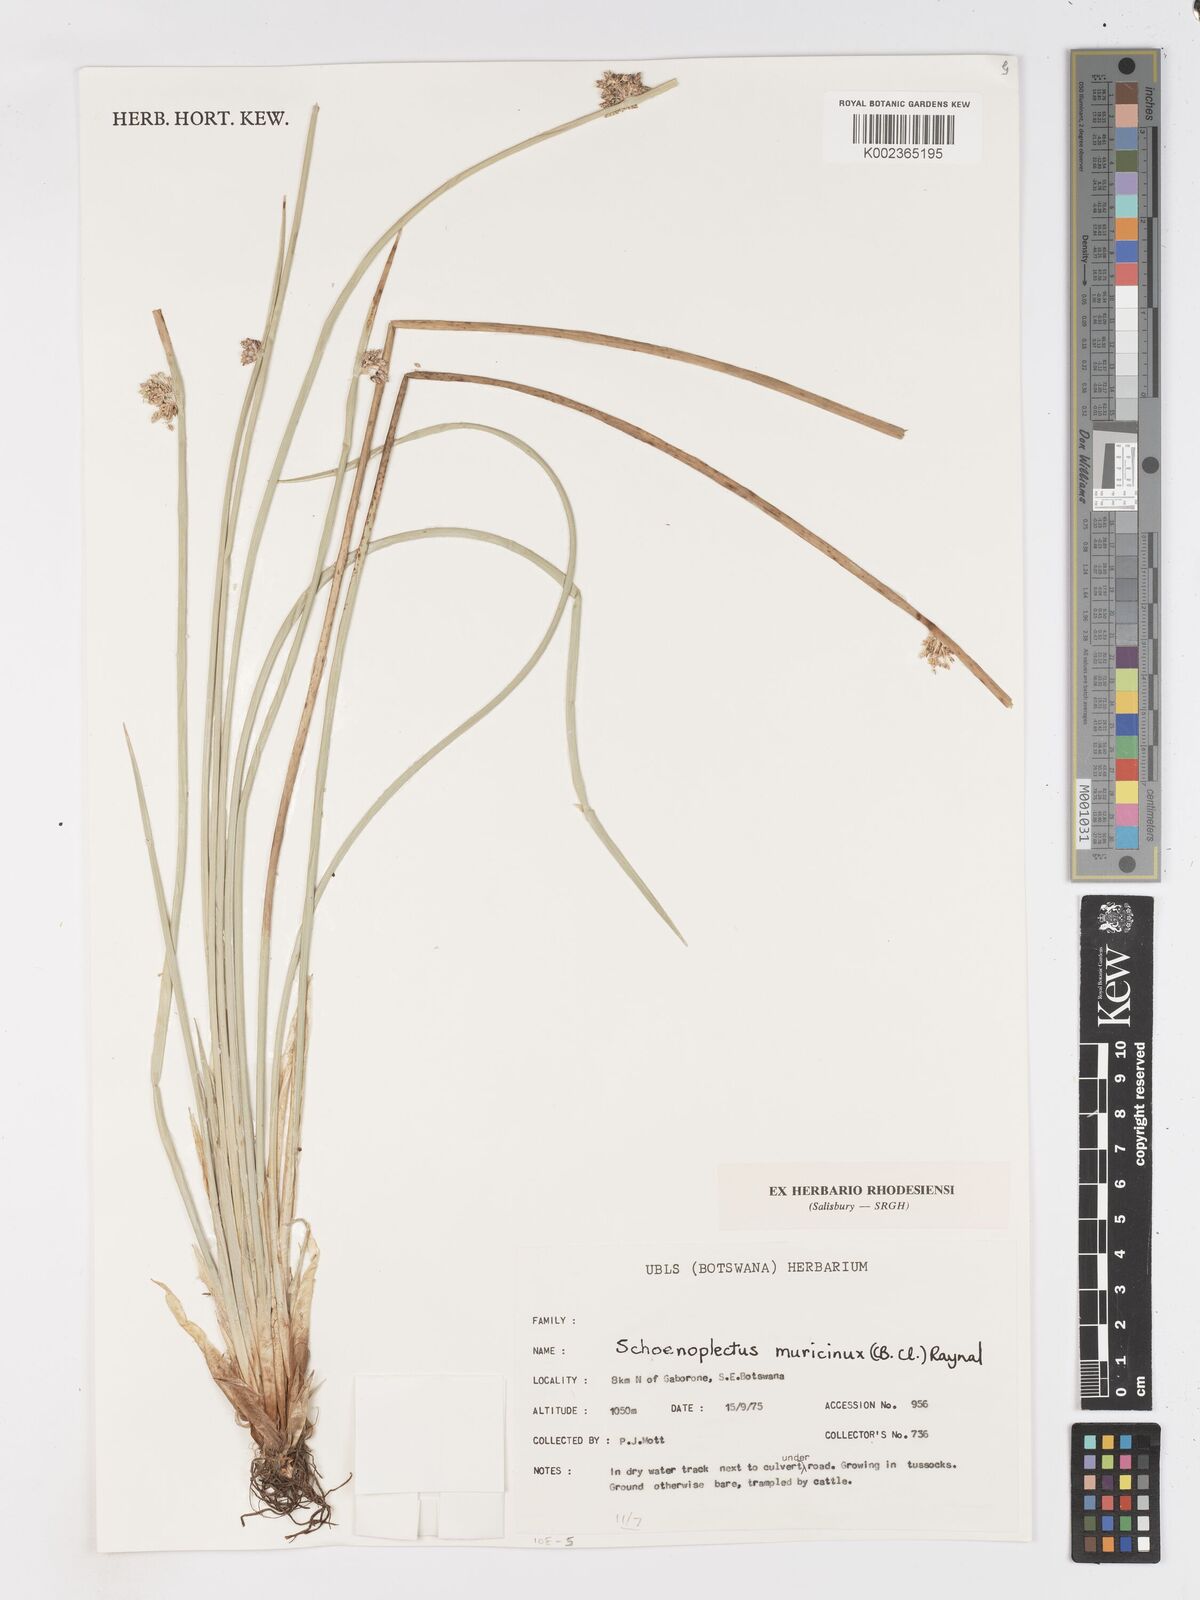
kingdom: Plantae
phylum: Tracheophyta
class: Liliopsida
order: Poales
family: Cyperaceae
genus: Schoenoplectiella
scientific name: Schoenoplectiella muricinux
